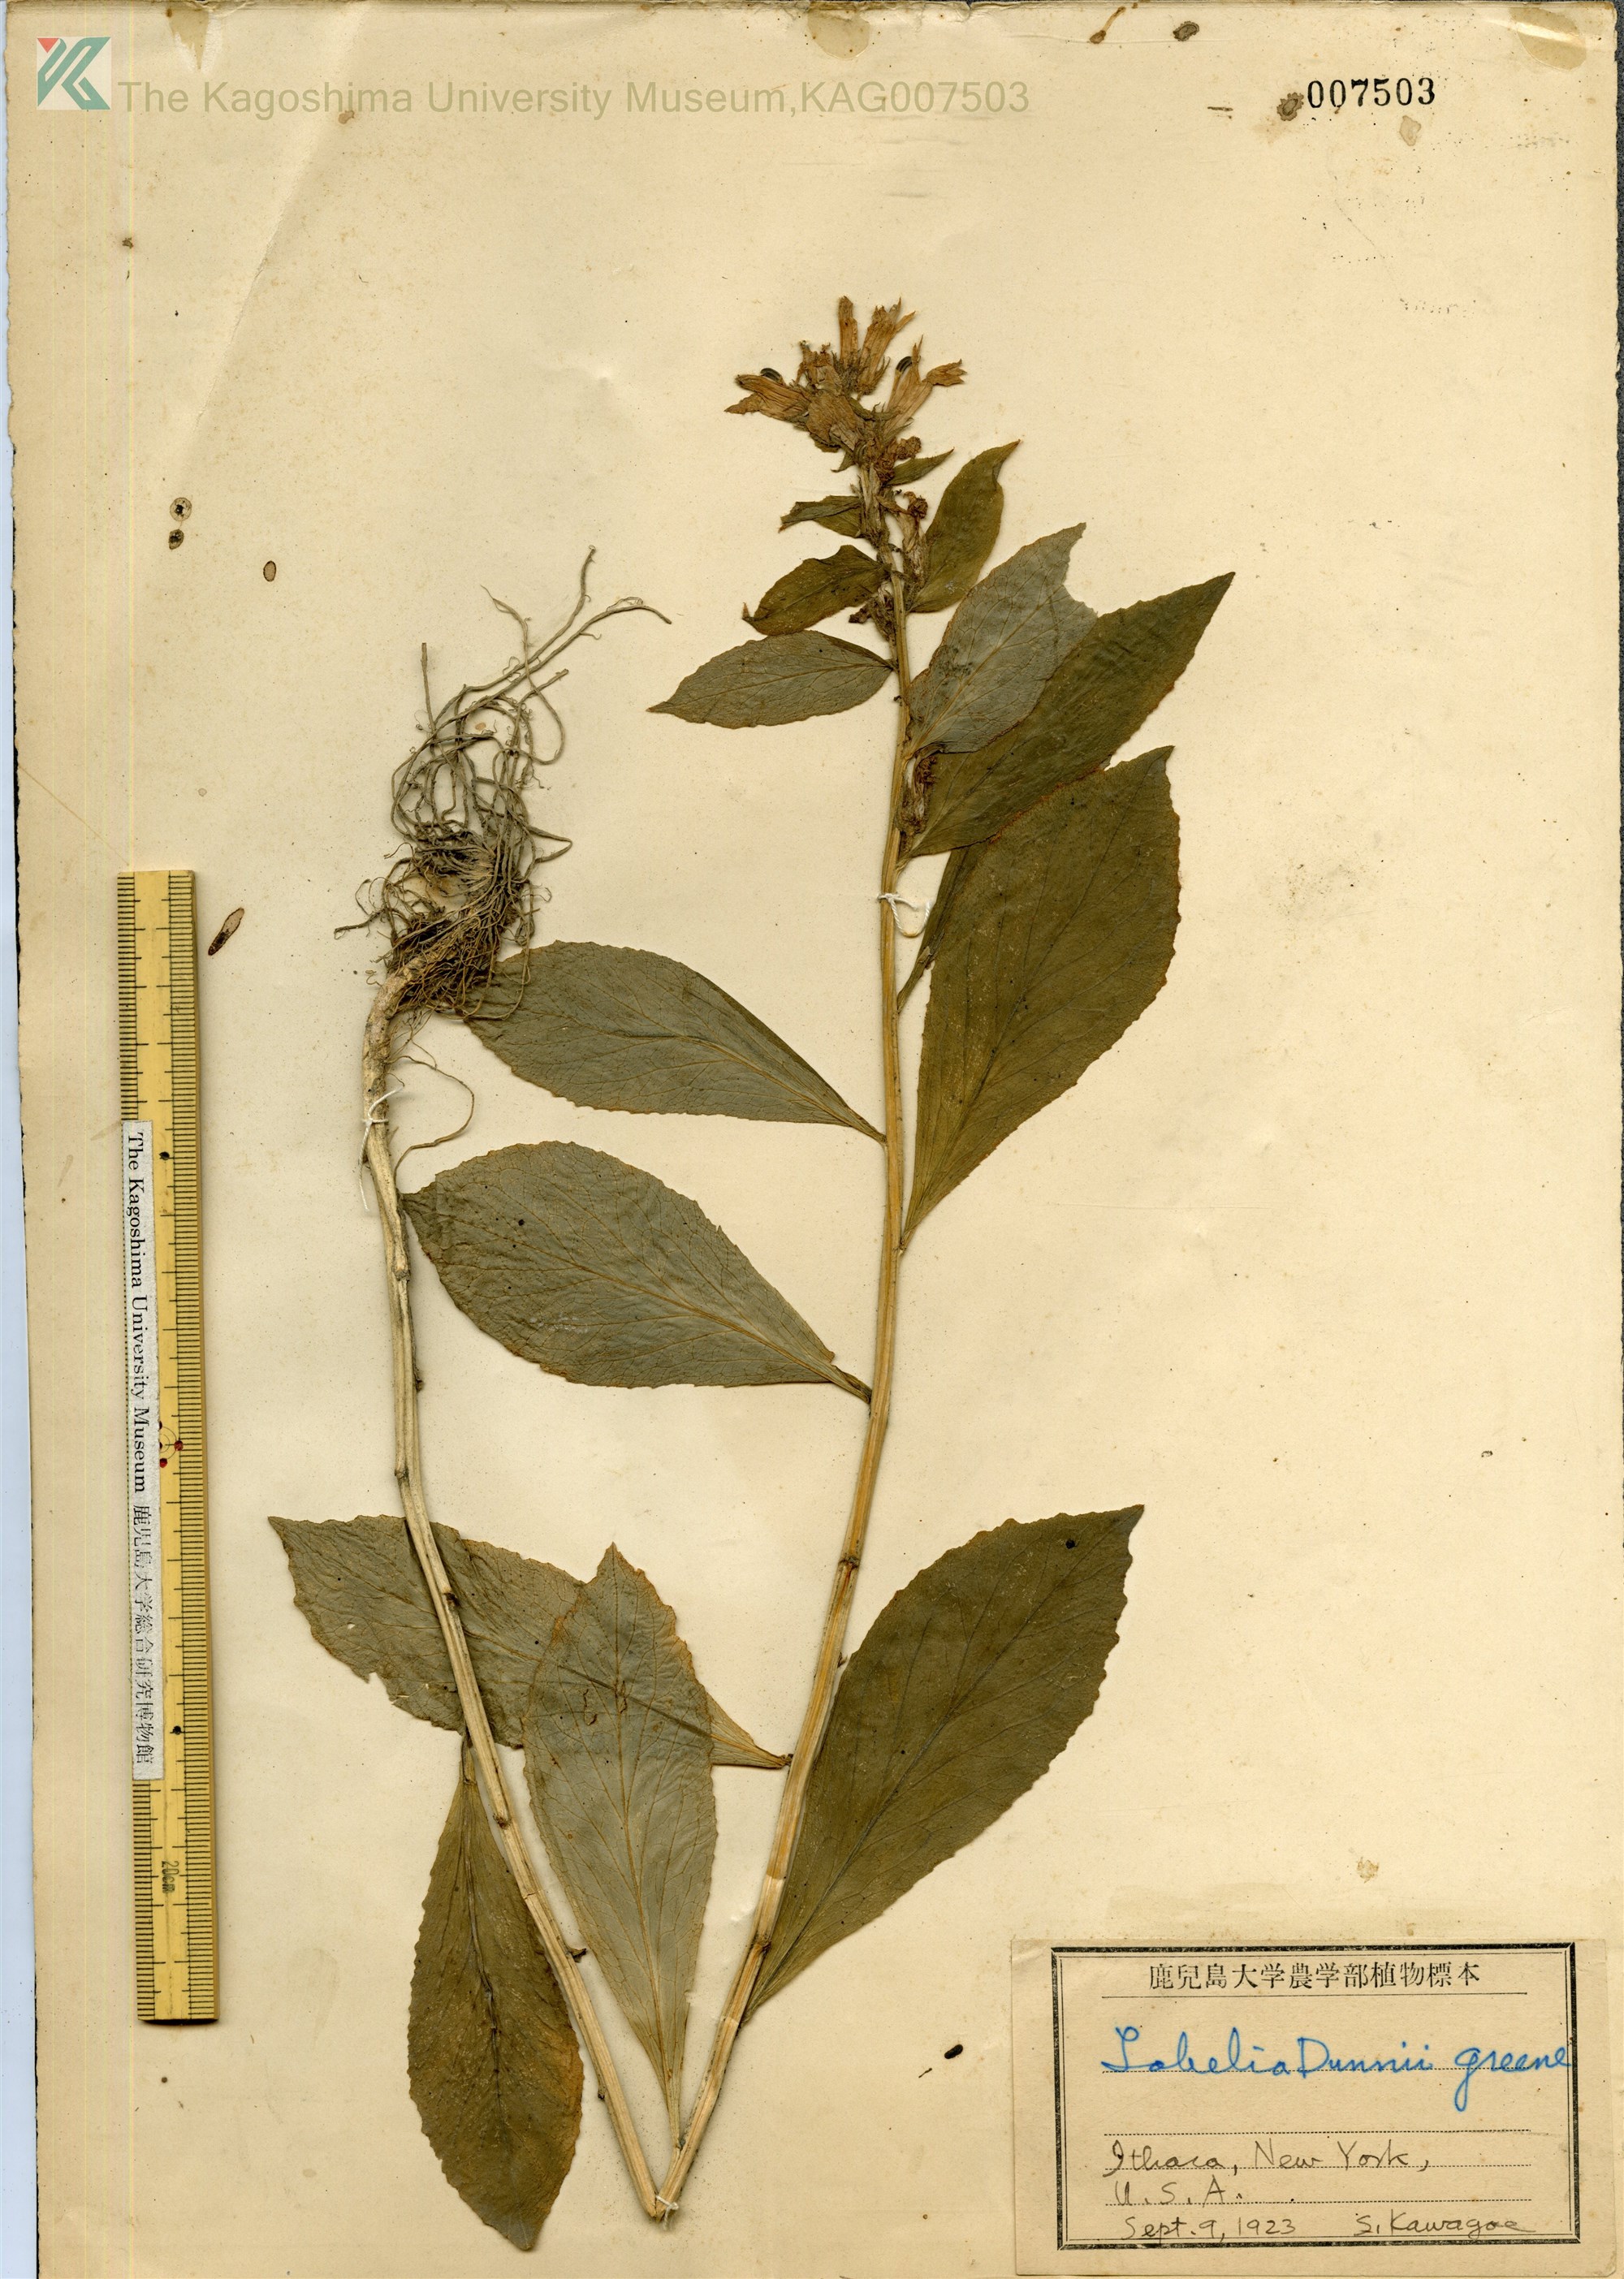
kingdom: Plantae
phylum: Tracheophyta
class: Magnoliopsida
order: Asterales
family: Campanulaceae
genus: Palmerella
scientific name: Palmerella debilis
